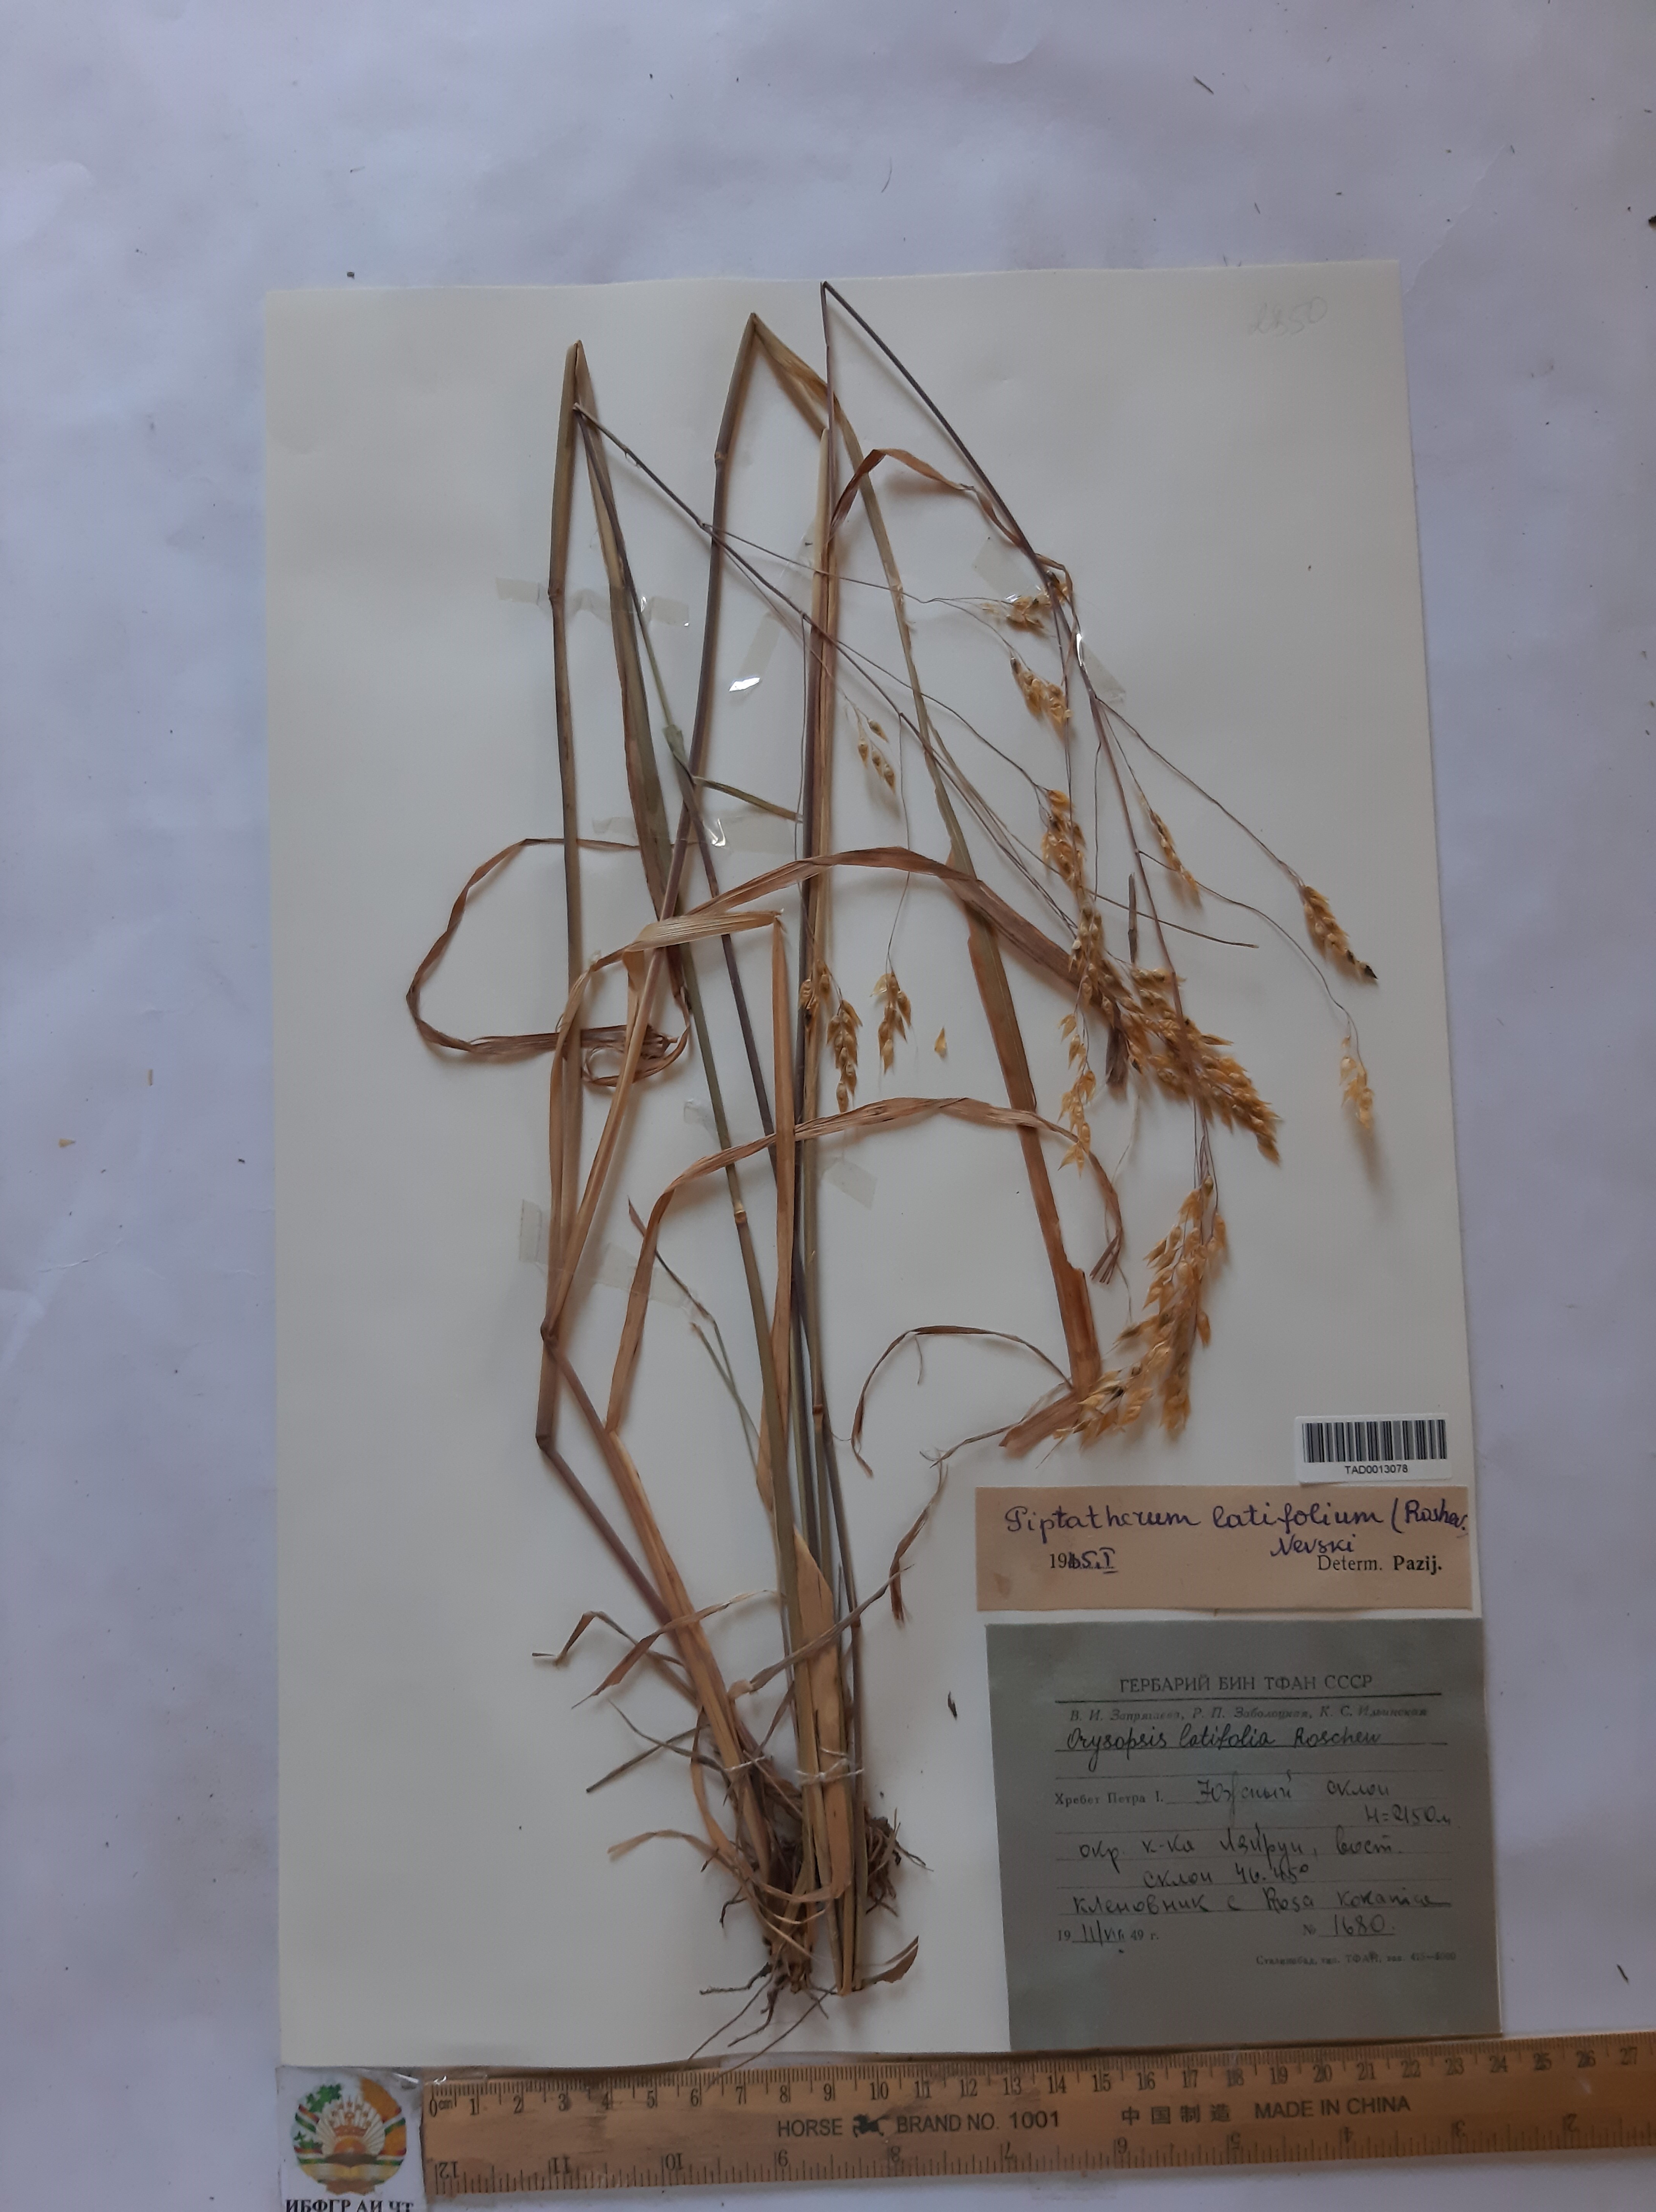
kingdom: Plantae
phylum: Tracheophyta
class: Liliopsida
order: Poales
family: Poaceae
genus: Piptatherum
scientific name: Piptatherum laterale
